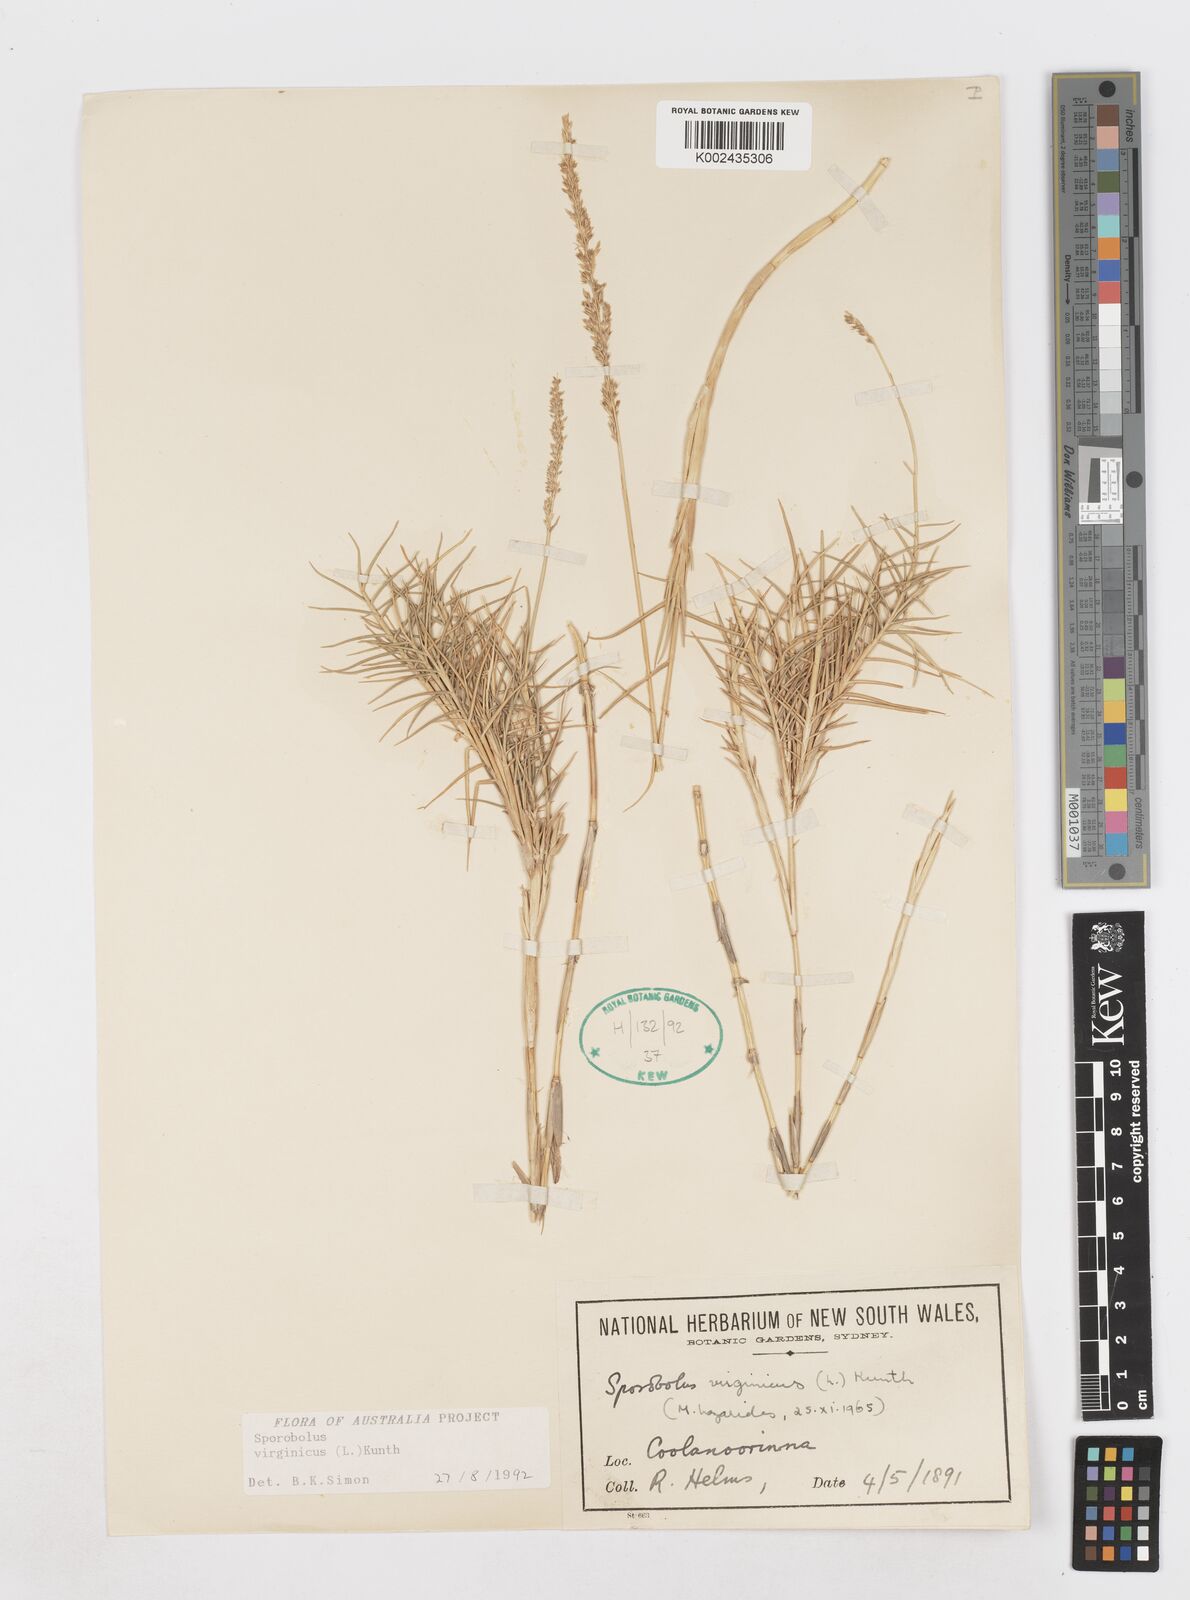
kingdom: Plantae
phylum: Tracheophyta
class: Liliopsida
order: Poales
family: Poaceae
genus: Sporobolus
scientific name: Sporobolus virginicus
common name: Beach dropseed
